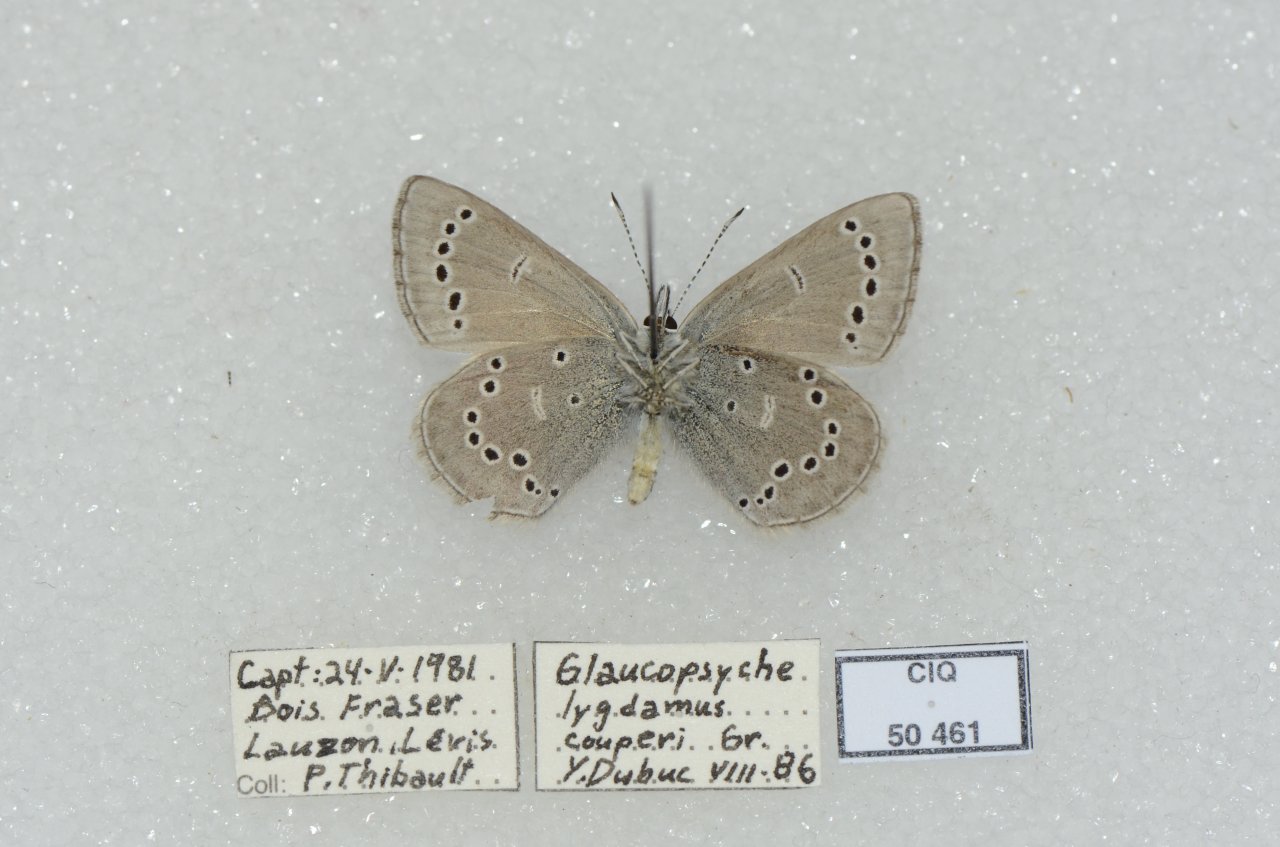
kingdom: Animalia
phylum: Arthropoda
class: Insecta
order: Lepidoptera
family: Lycaenidae
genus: Glaucopsyche
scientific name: Glaucopsyche lygdamus
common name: Silvery Blue
